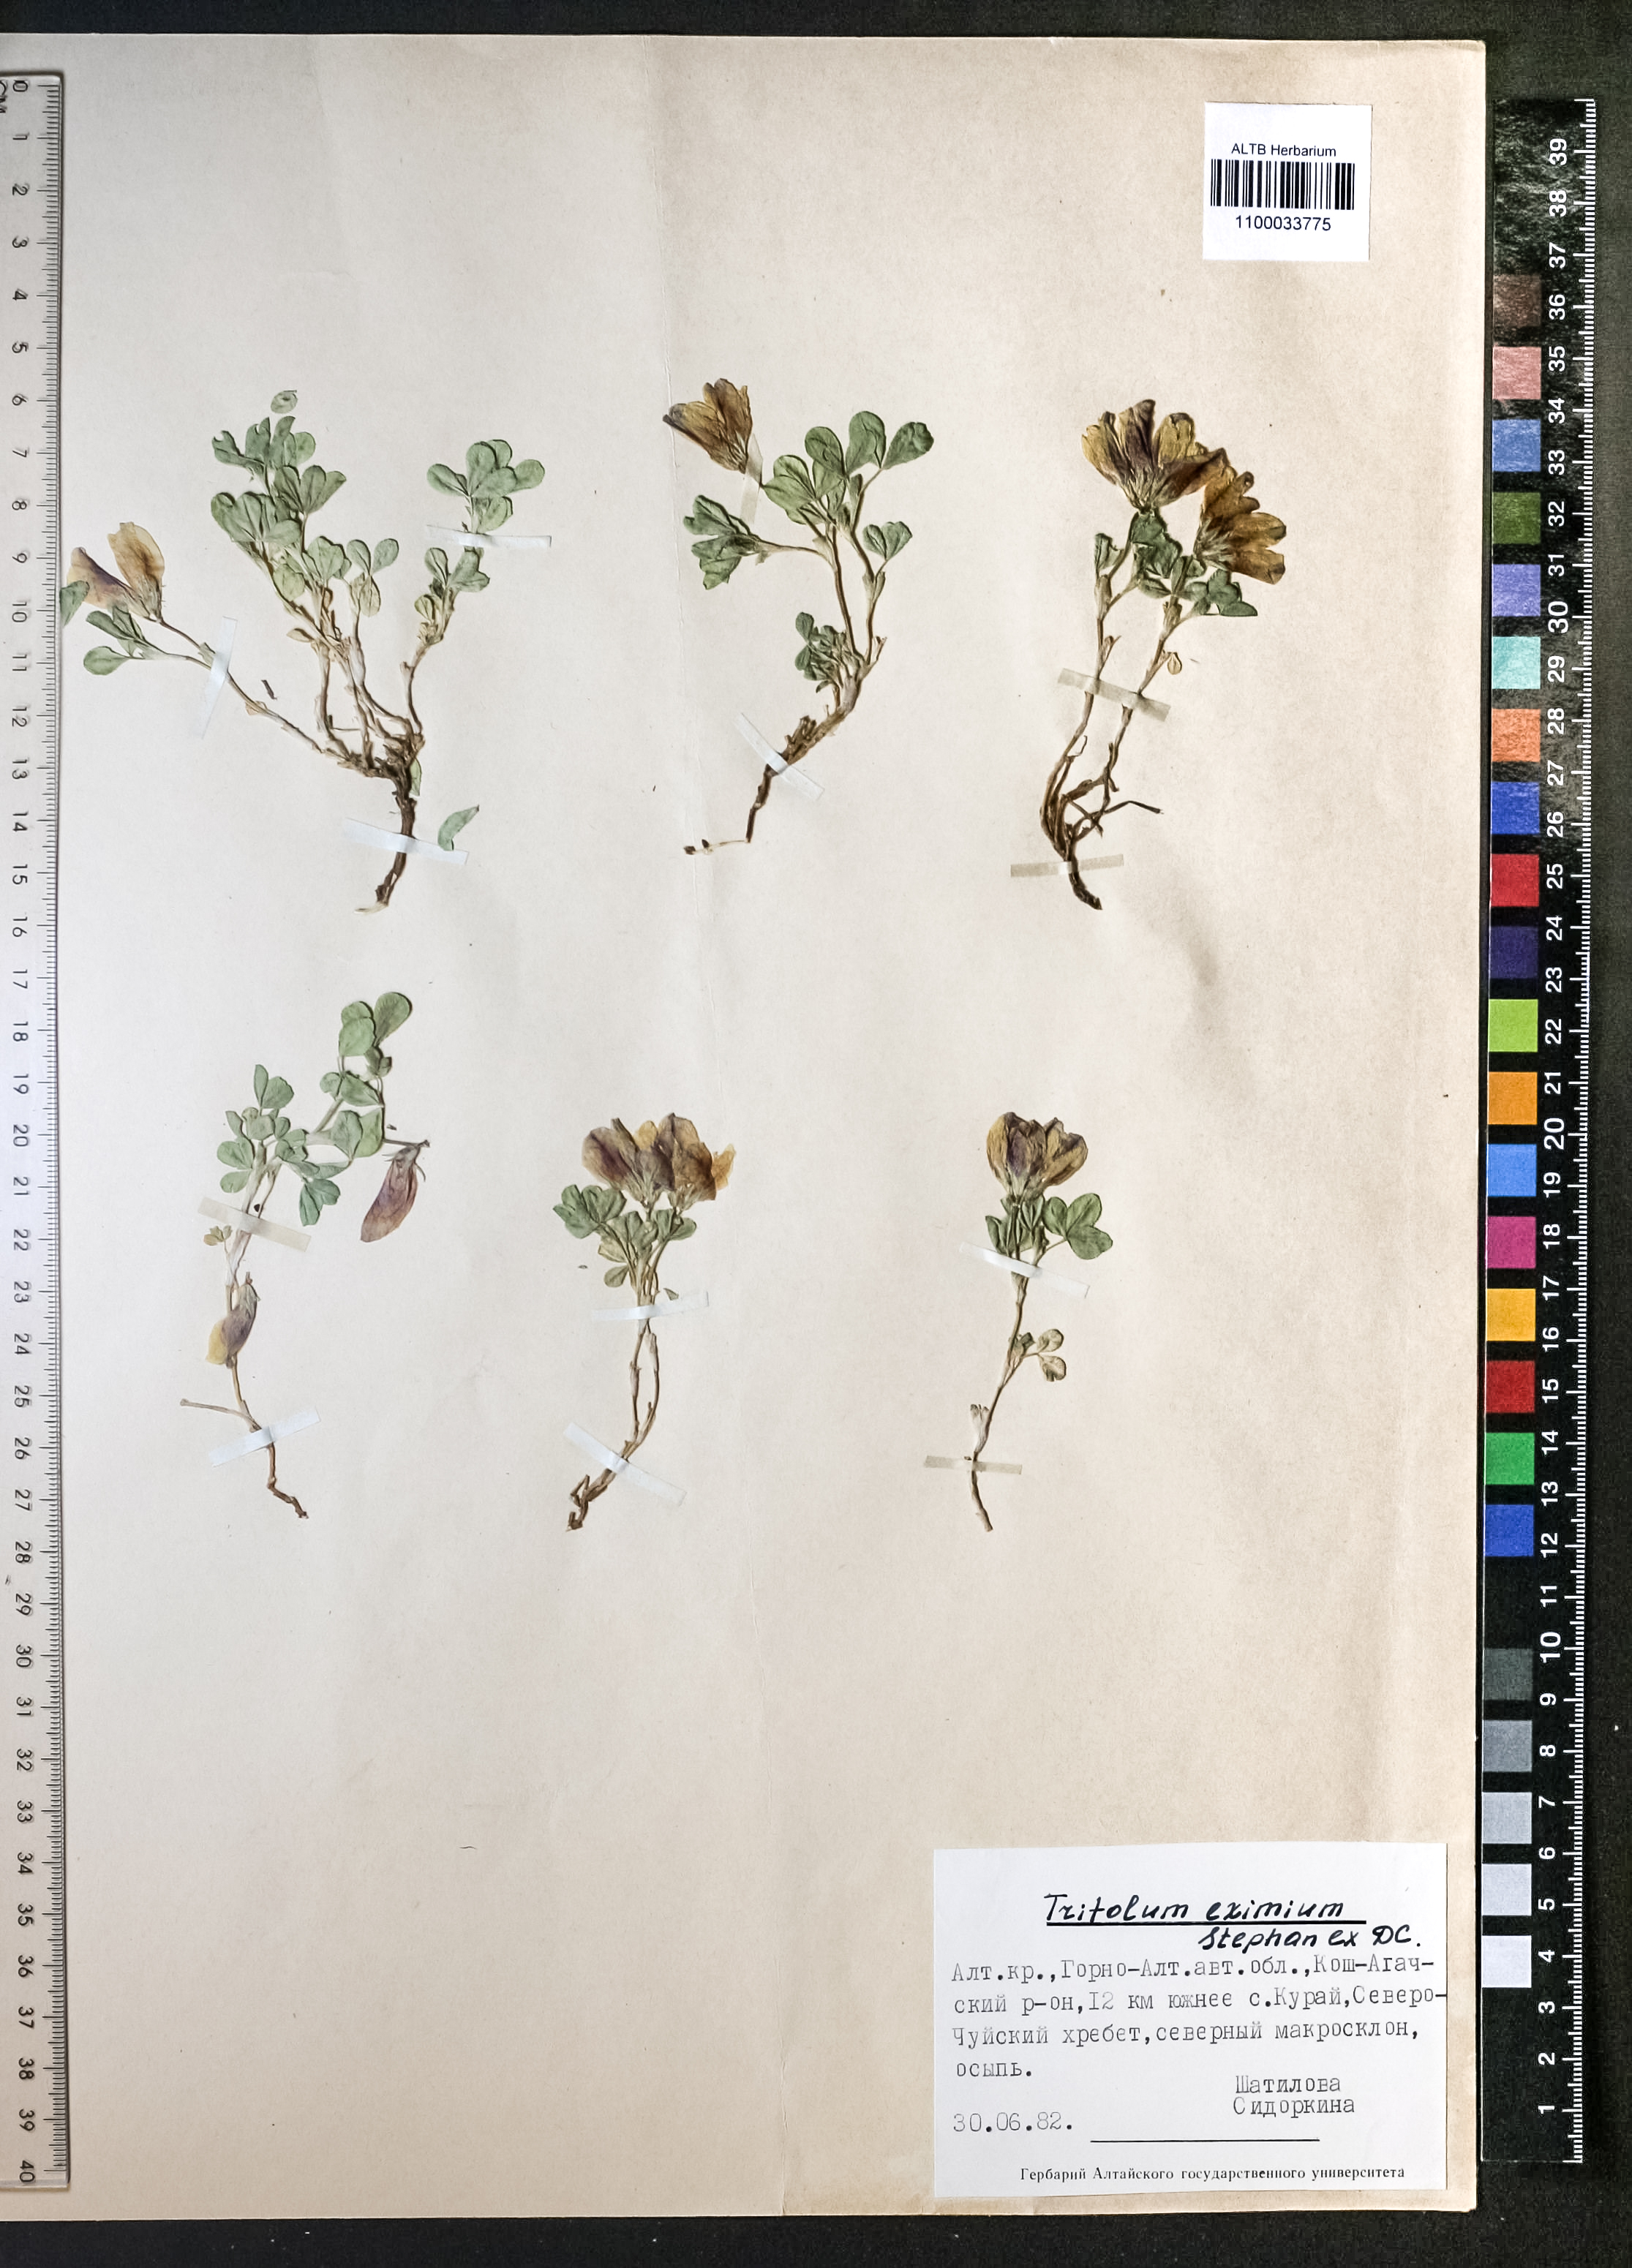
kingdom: Plantae
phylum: Tracheophyta
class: Magnoliopsida
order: Fabales
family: Fabaceae
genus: Trifolium
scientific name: Trifolium eximium
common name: Excellent clover
